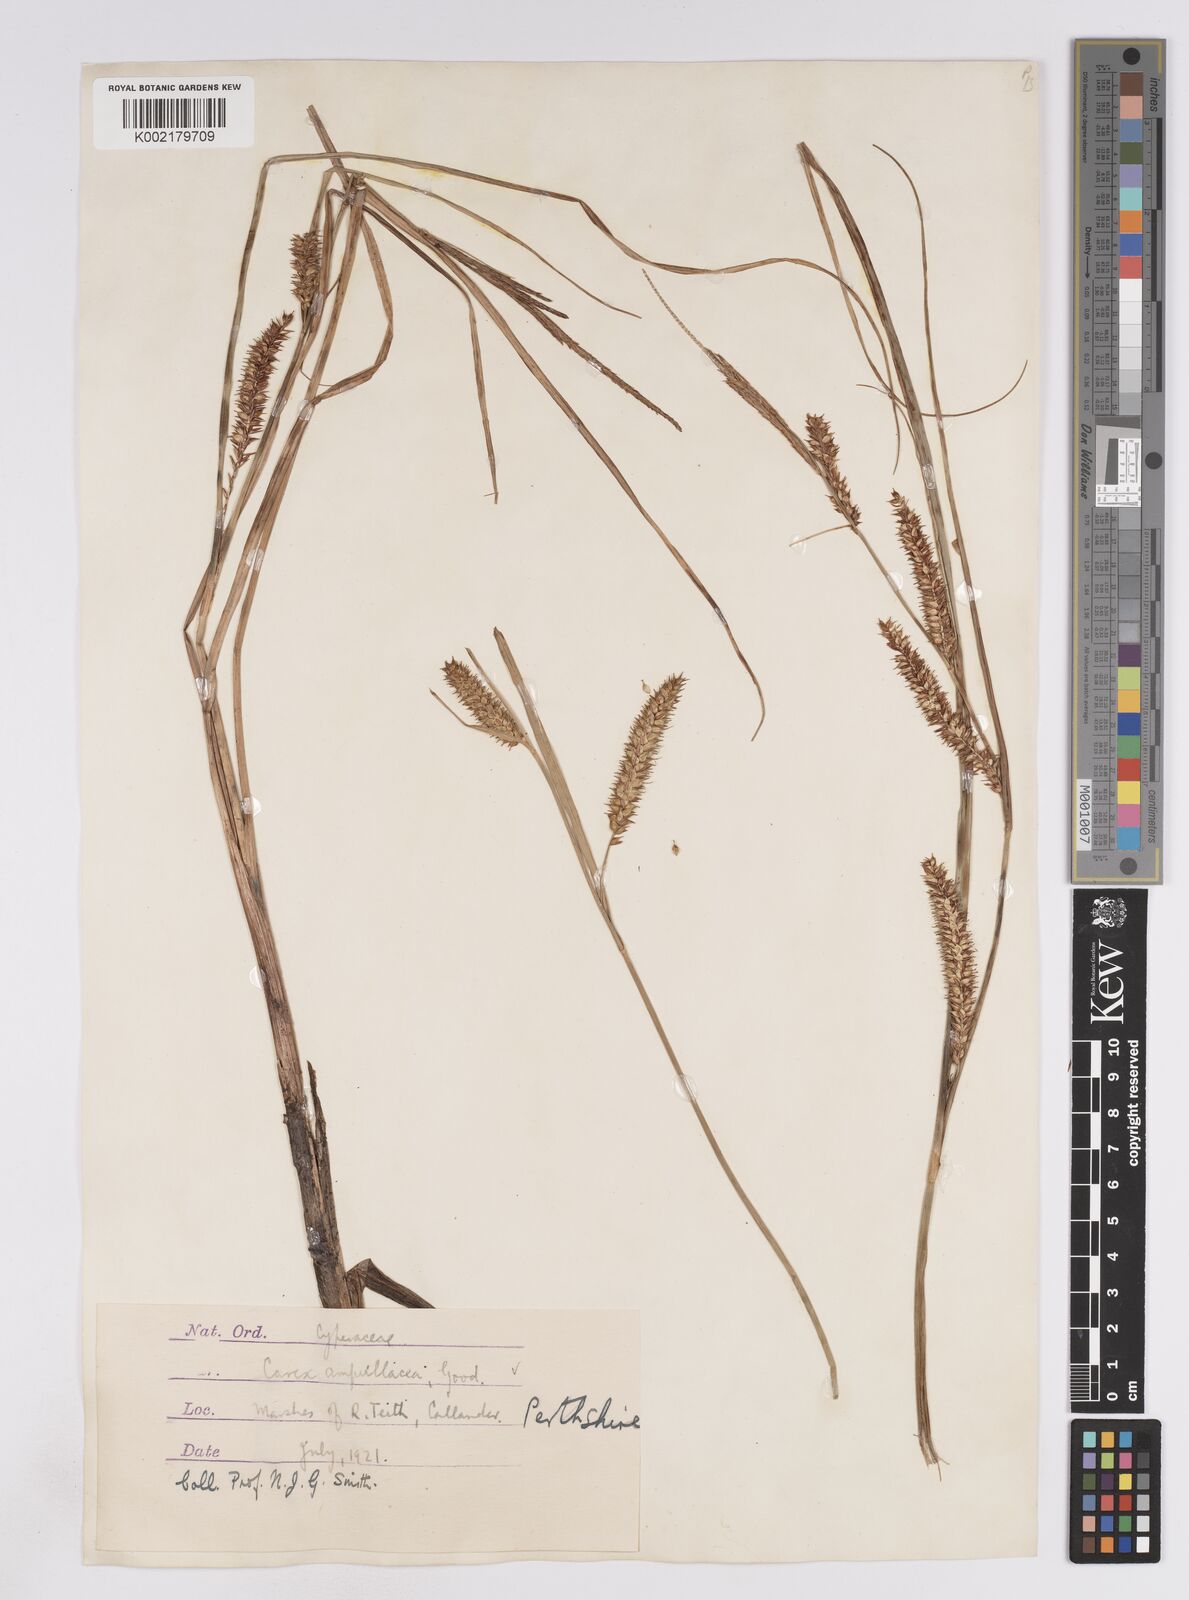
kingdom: Plantae
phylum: Tracheophyta
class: Liliopsida
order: Poales
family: Cyperaceae
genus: Carex
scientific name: Carex rostrata
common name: Bottle sedge
